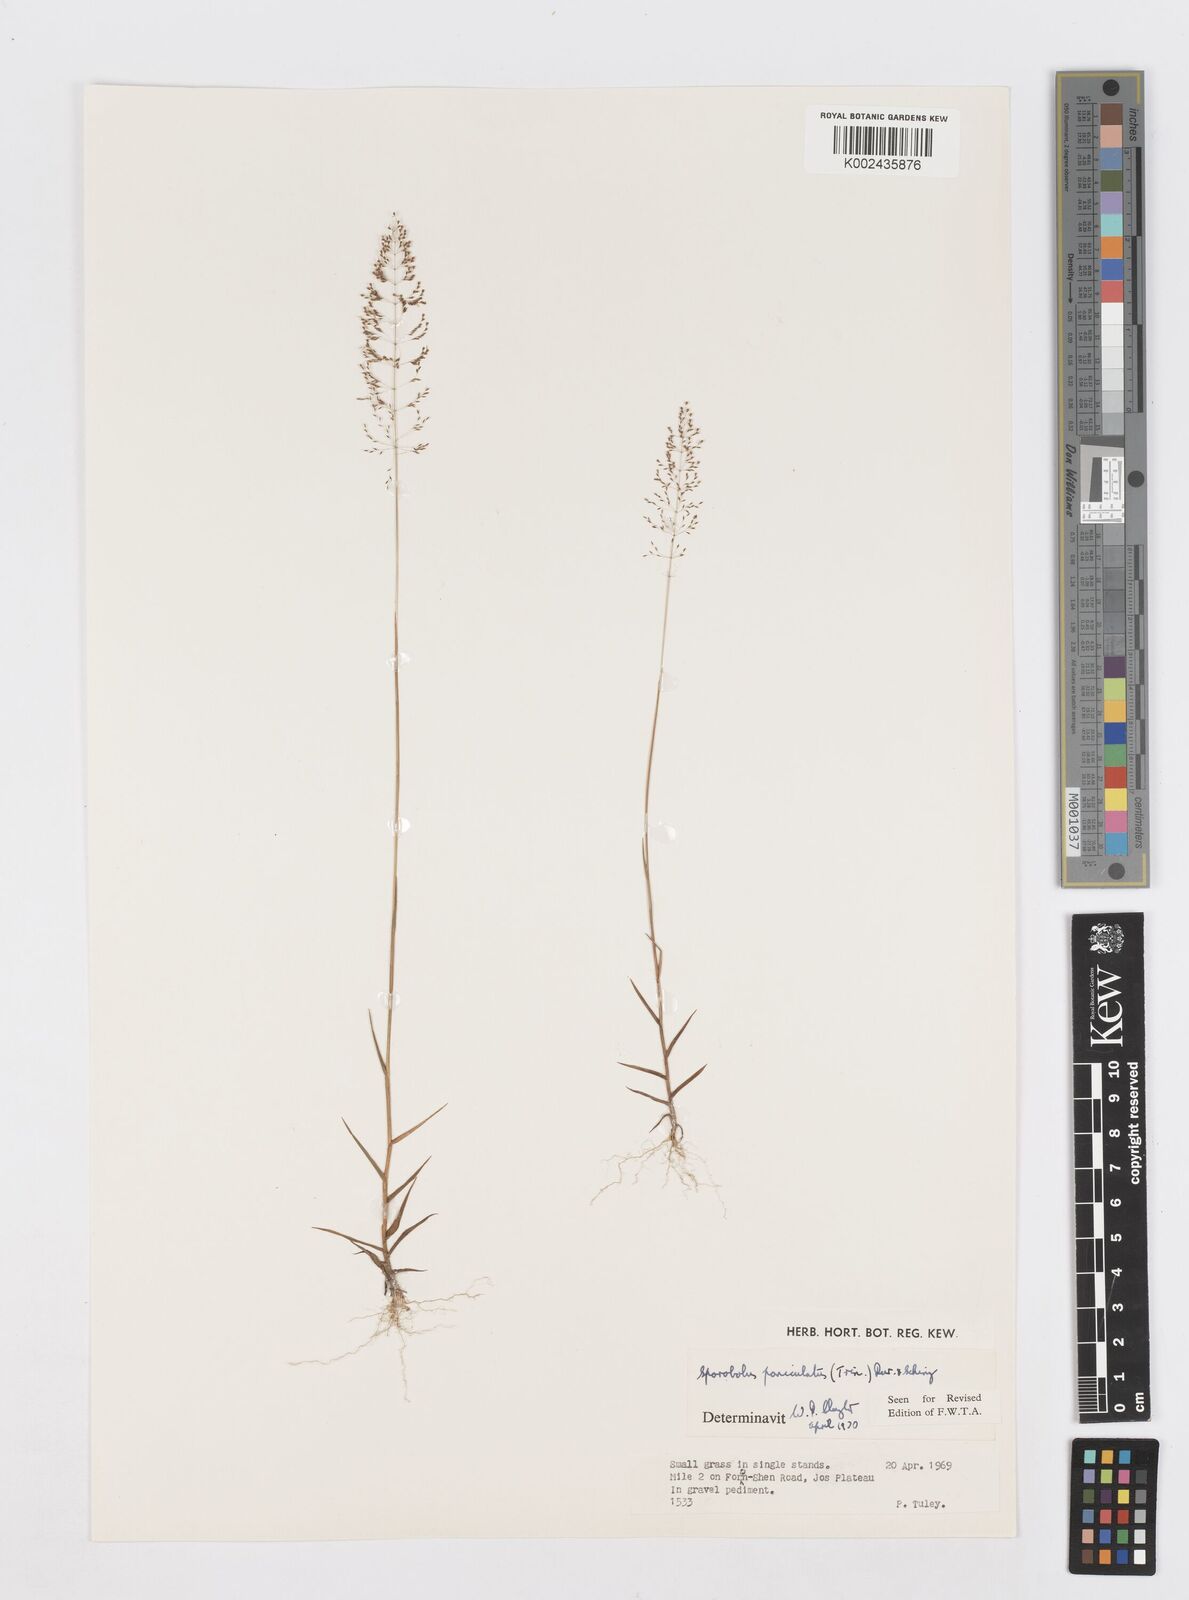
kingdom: Plantae
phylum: Tracheophyta
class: Liliopsida
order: Poales
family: Poaceae
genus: Sporobolus
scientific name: Sporobolus micranthus
